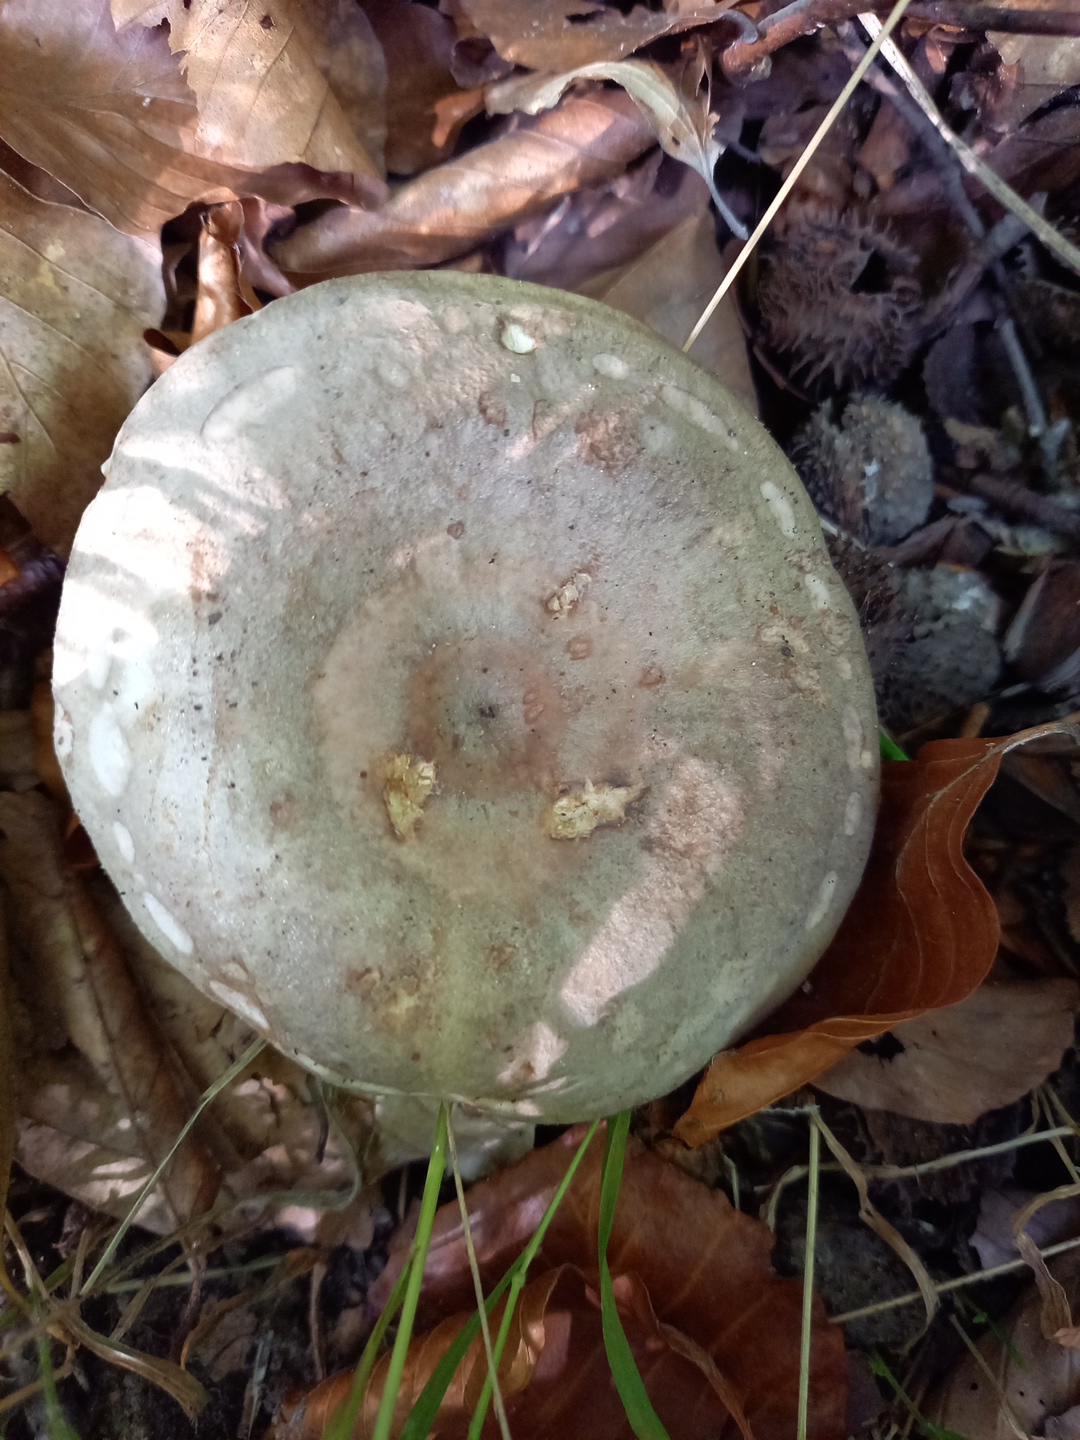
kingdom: Fungi
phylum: Basidiomycota
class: Agaricomycetes
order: Russulales
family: Russulaceae
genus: Lactarius
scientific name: Lactarius fluens
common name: lysrandet mælkehat
